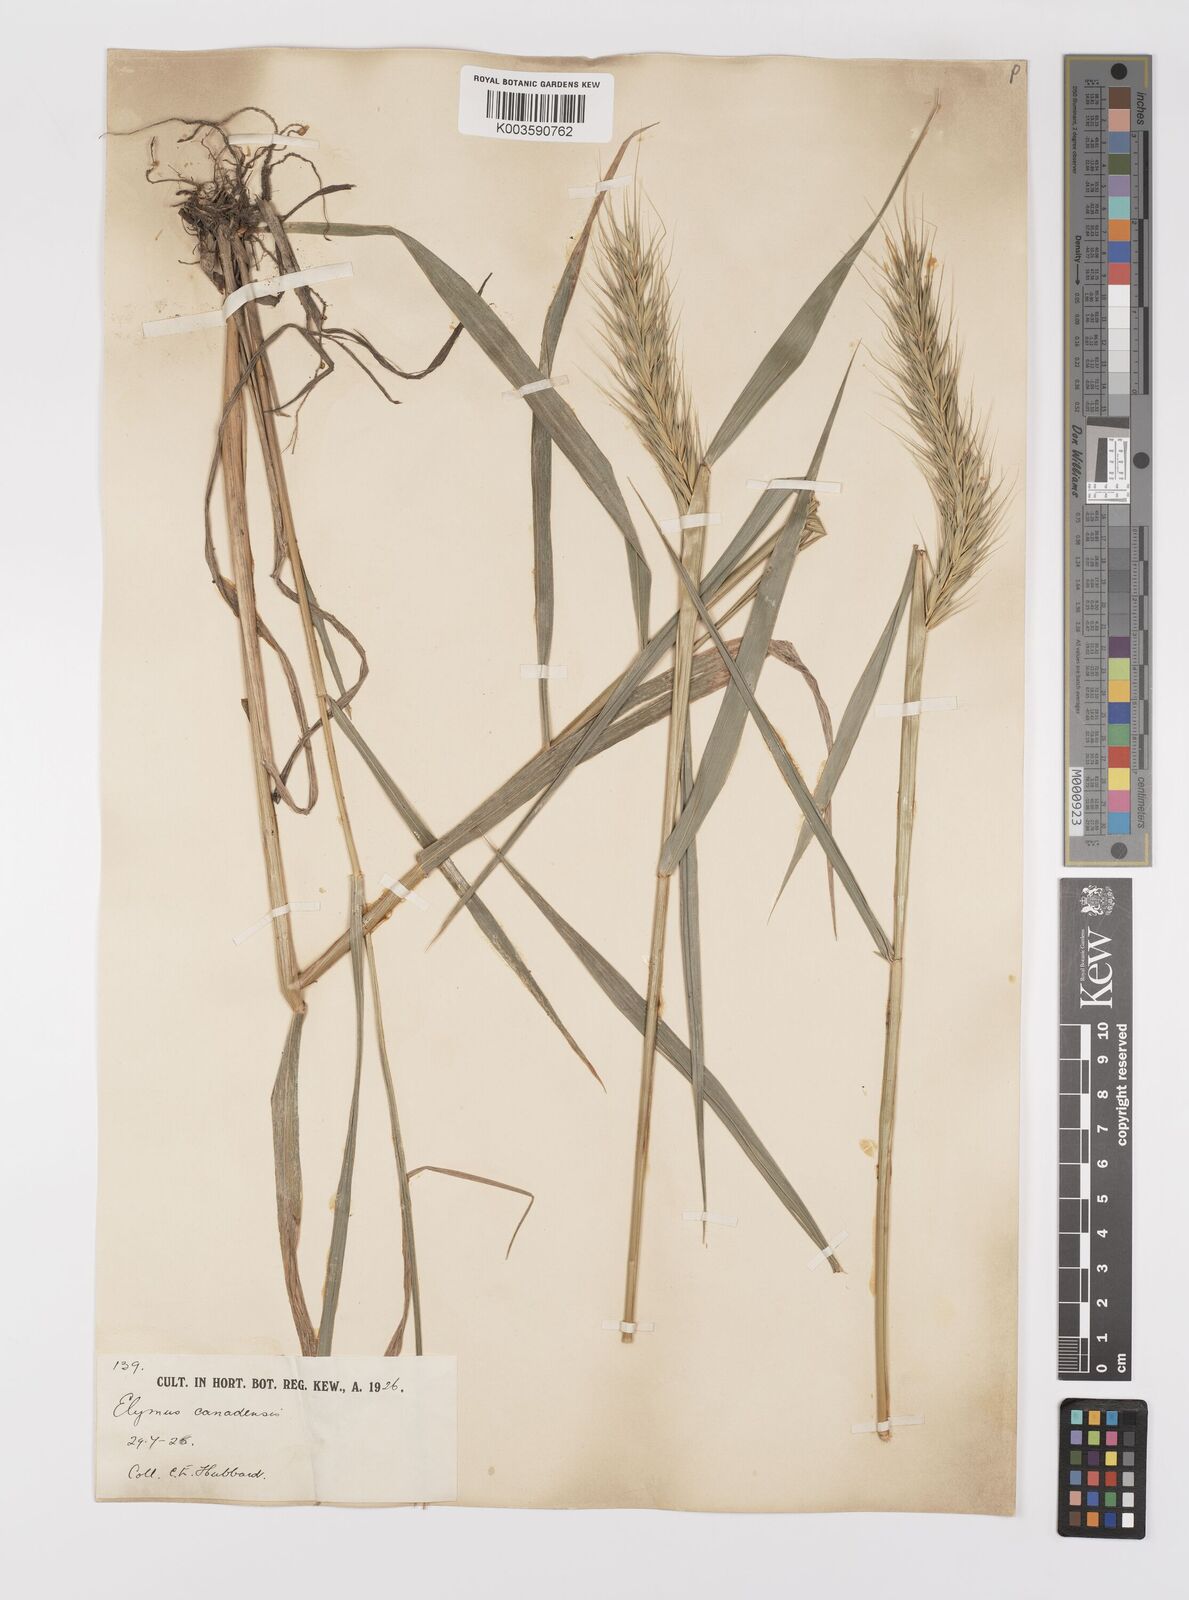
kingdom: Plantae
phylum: Tracheophyta
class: Liliopsida
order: Poales
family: Poaceae
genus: Elymus
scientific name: Elymus virginicus
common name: Common eastern wildrye
